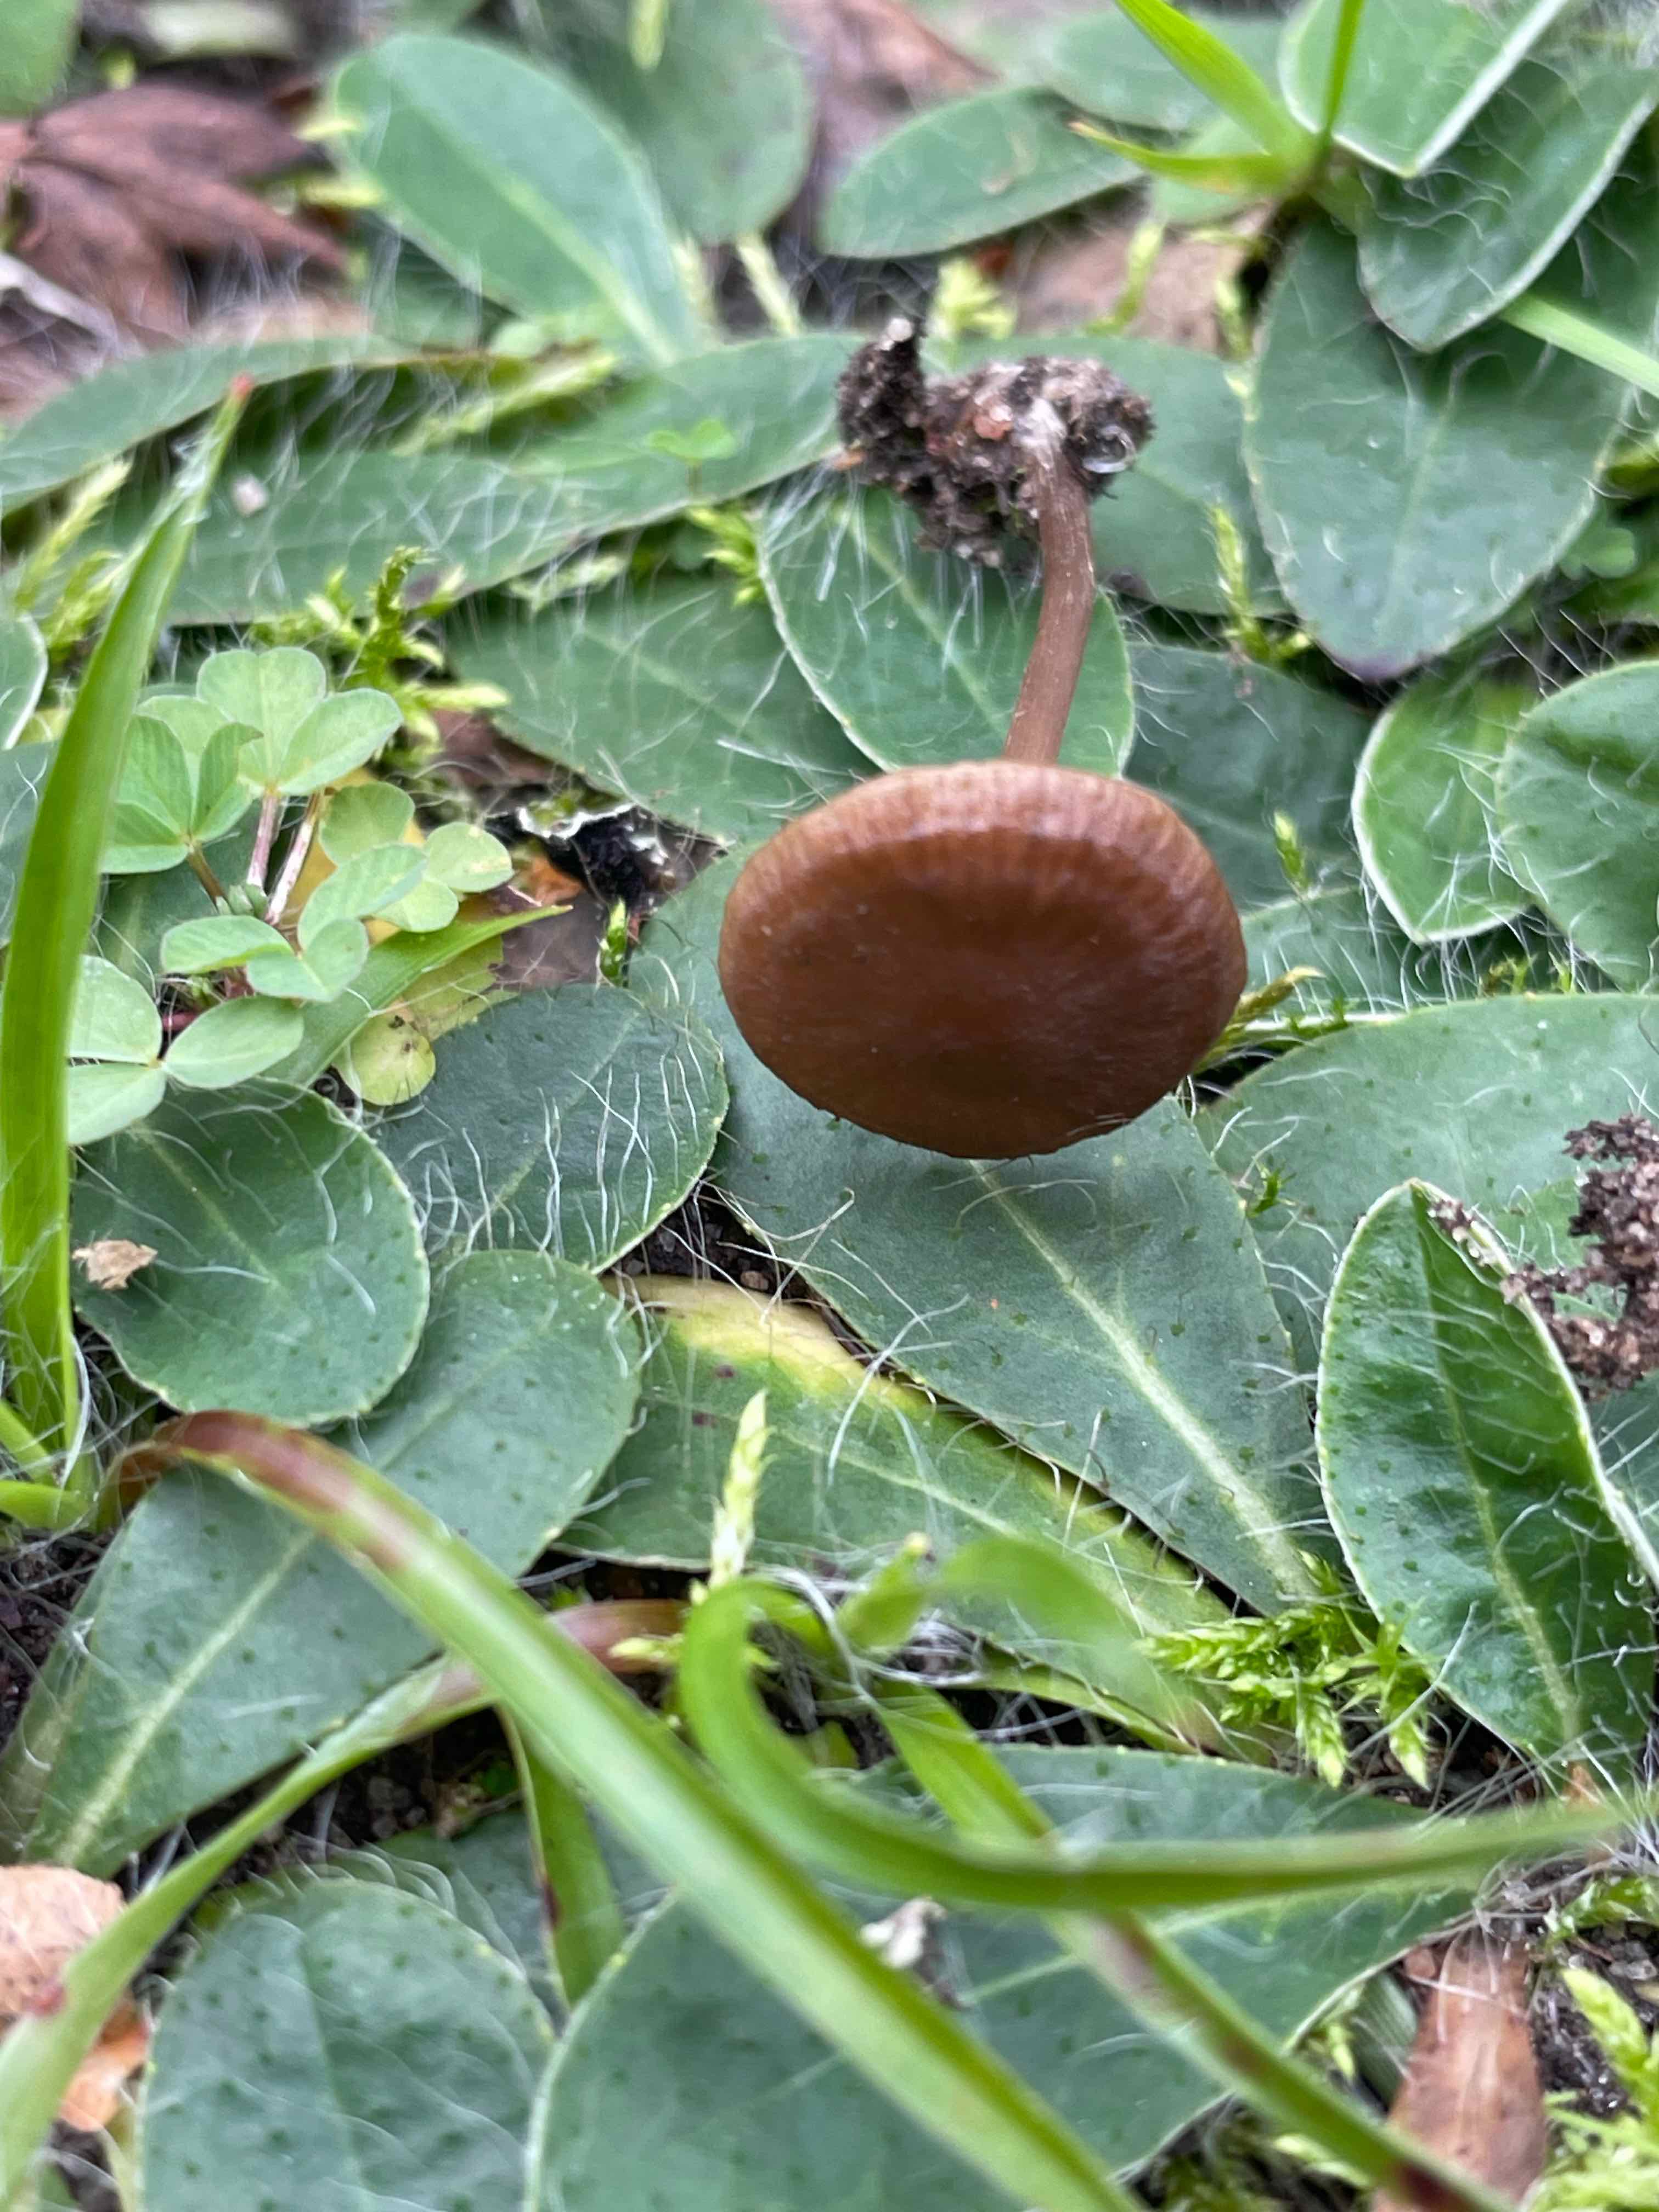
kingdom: Fungi
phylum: Basidiomycota
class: Agaricomycetes
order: Agaricales
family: Entolomataceae
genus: Entoloma
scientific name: Entoloma clandestinum
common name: tykbladet rødblad
